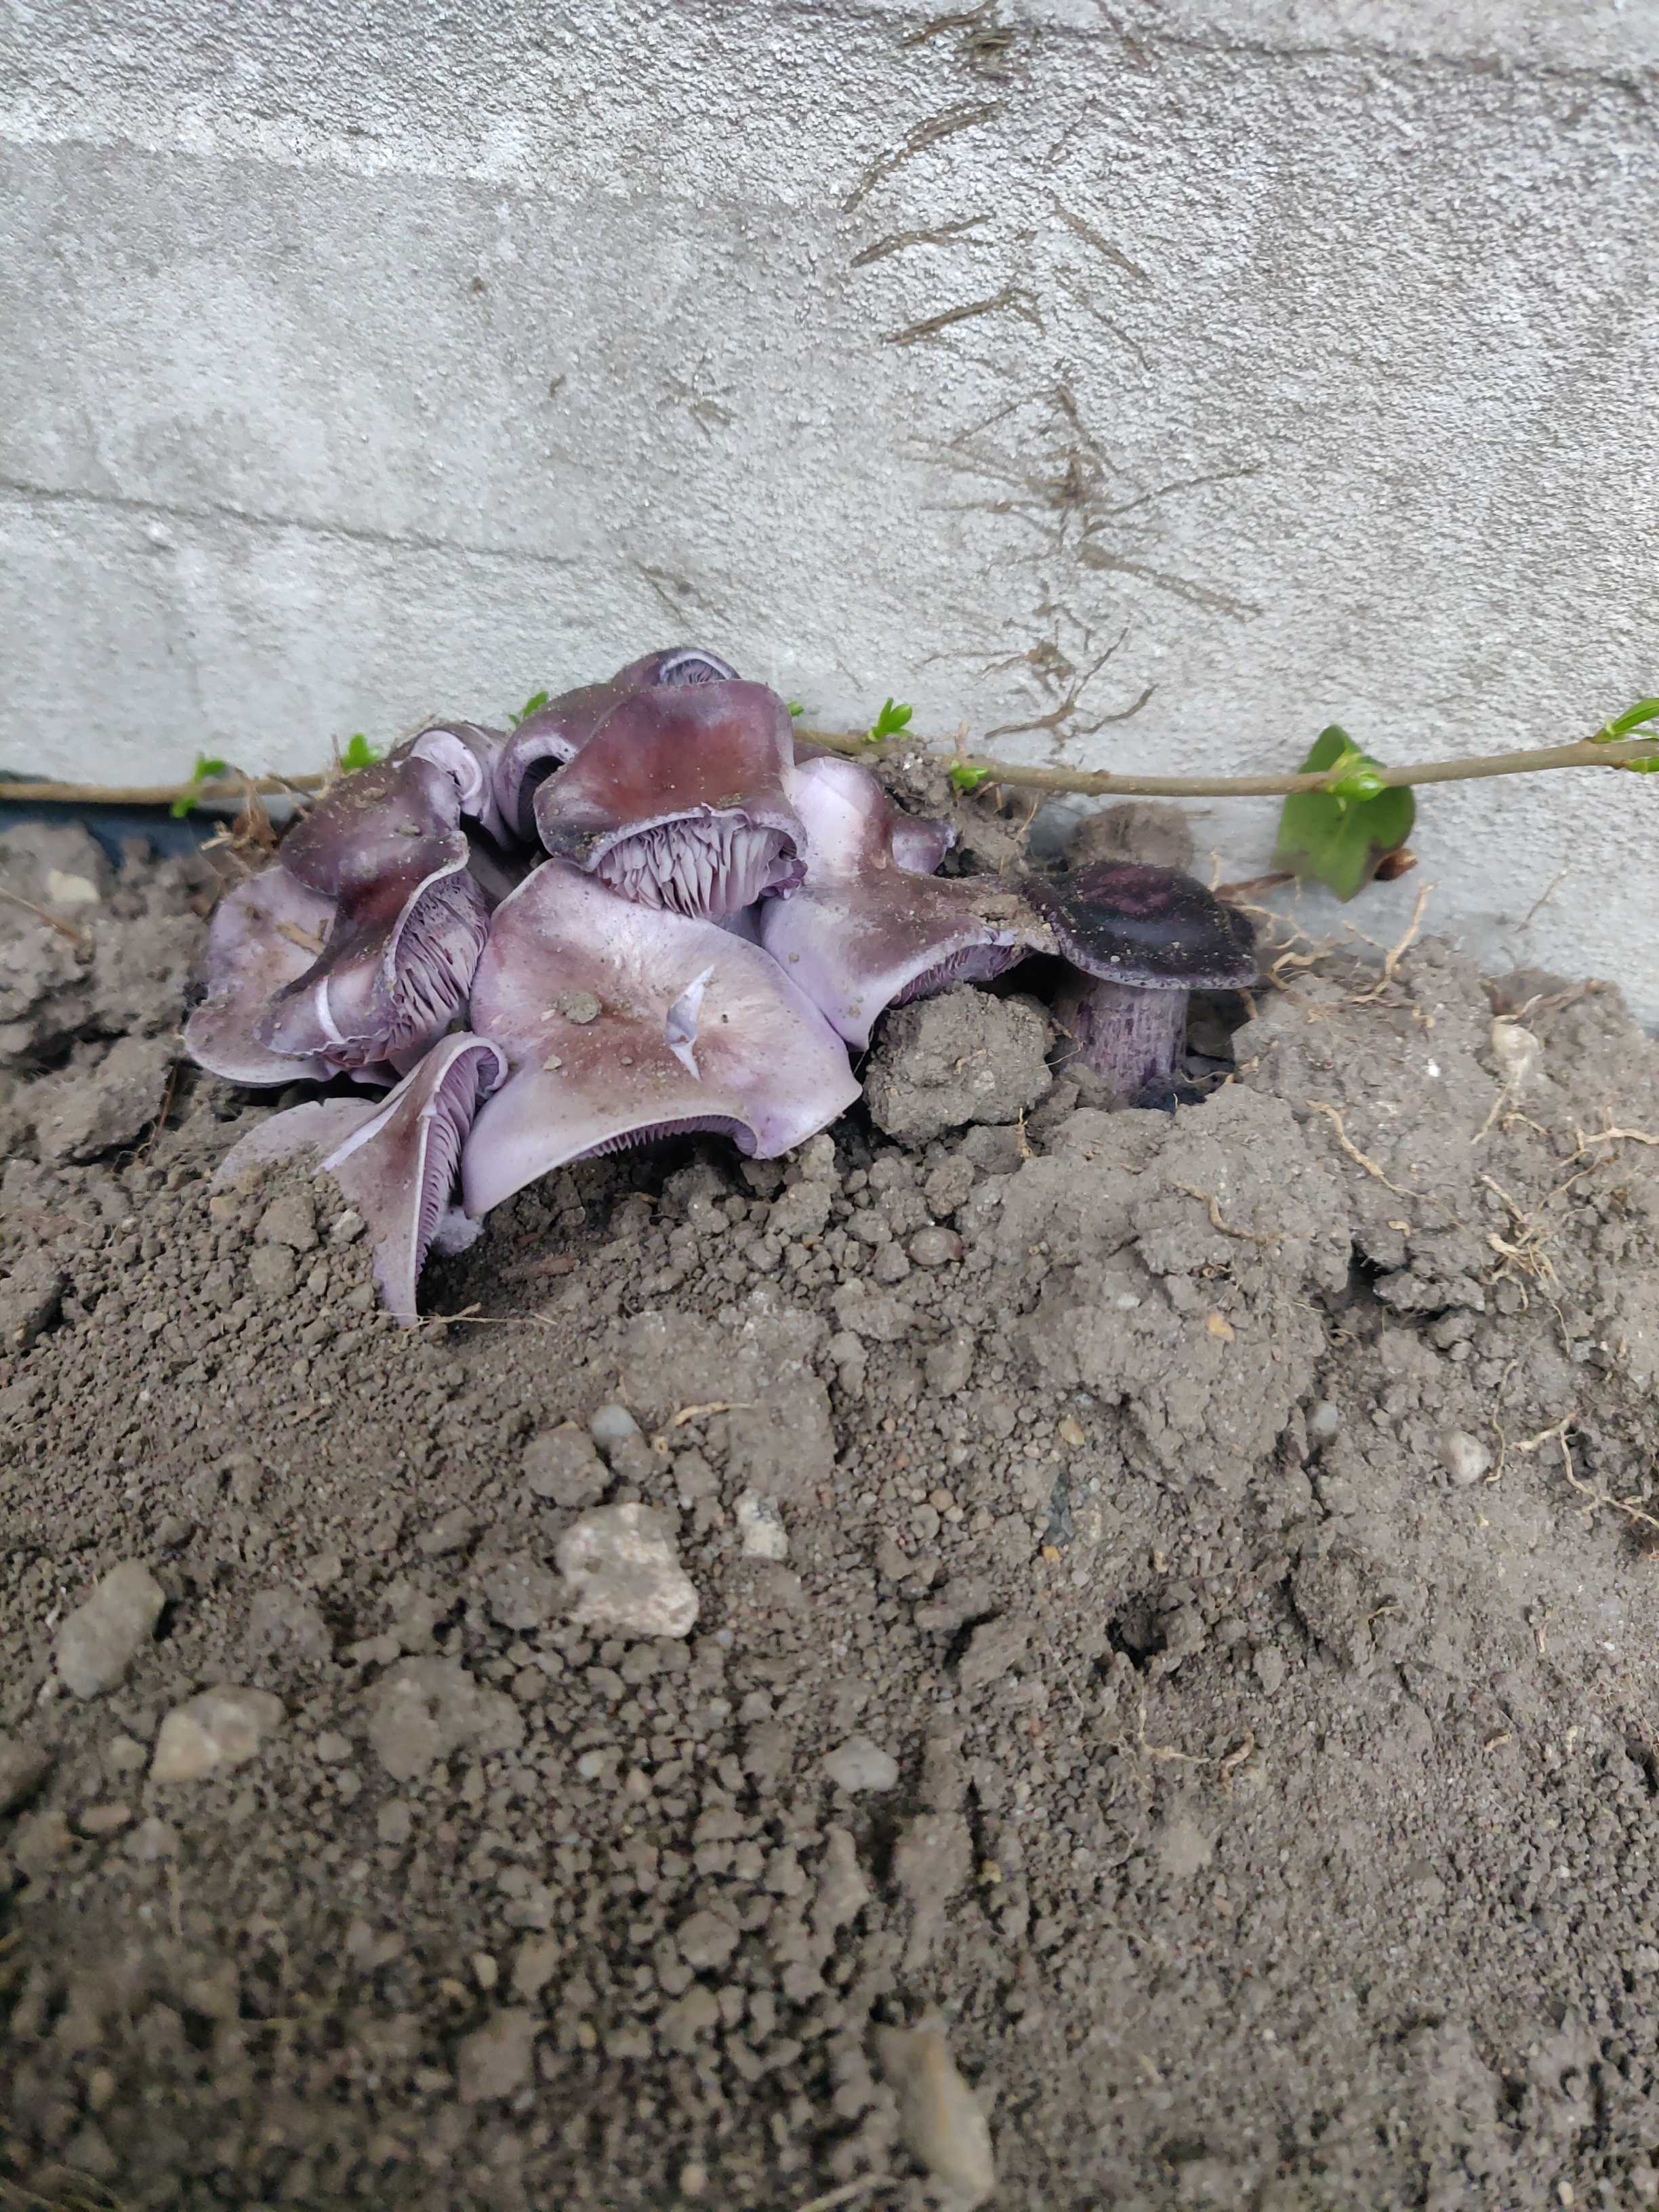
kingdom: Fungi
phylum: Basidiomycota
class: Agaricomycetes
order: Agaricales
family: Tricholomataceae
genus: Lepista
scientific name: Lepista
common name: hekseringshat
